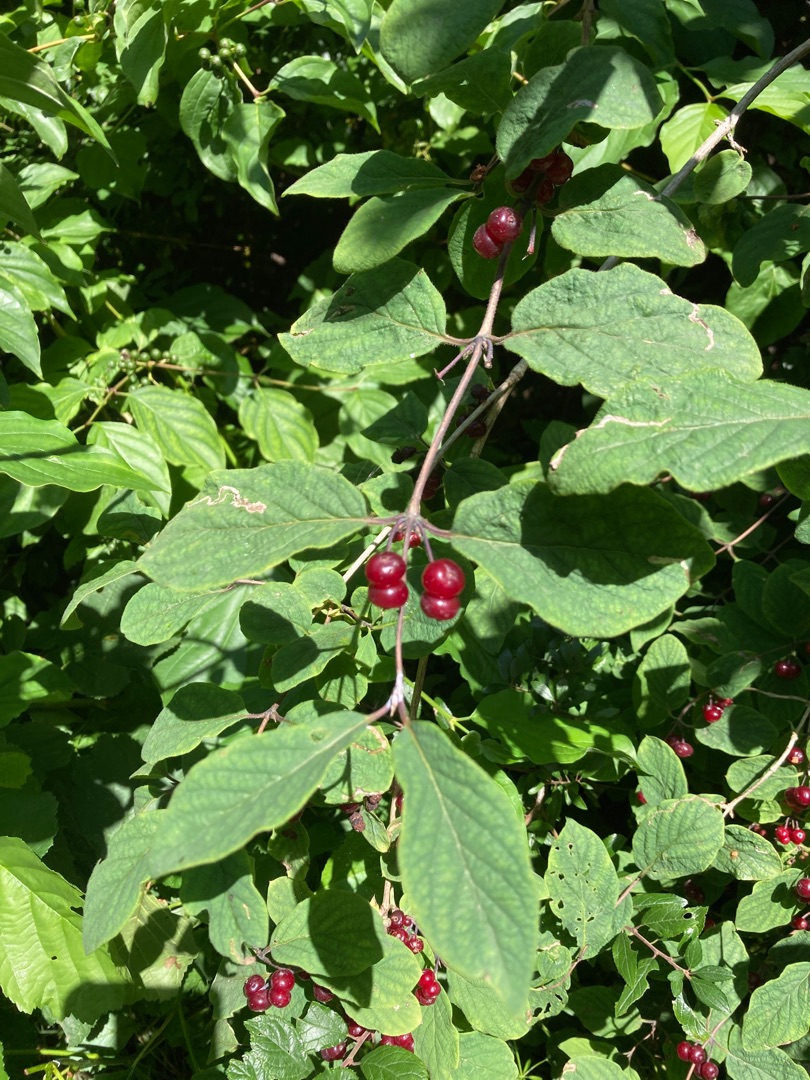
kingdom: Plantae
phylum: Tracheophyta
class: Magnoliopsida
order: Dipsacales
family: Caprifoliaceae
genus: Lonicera
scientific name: Lonicera xylosteum
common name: Dunet gedeblad
